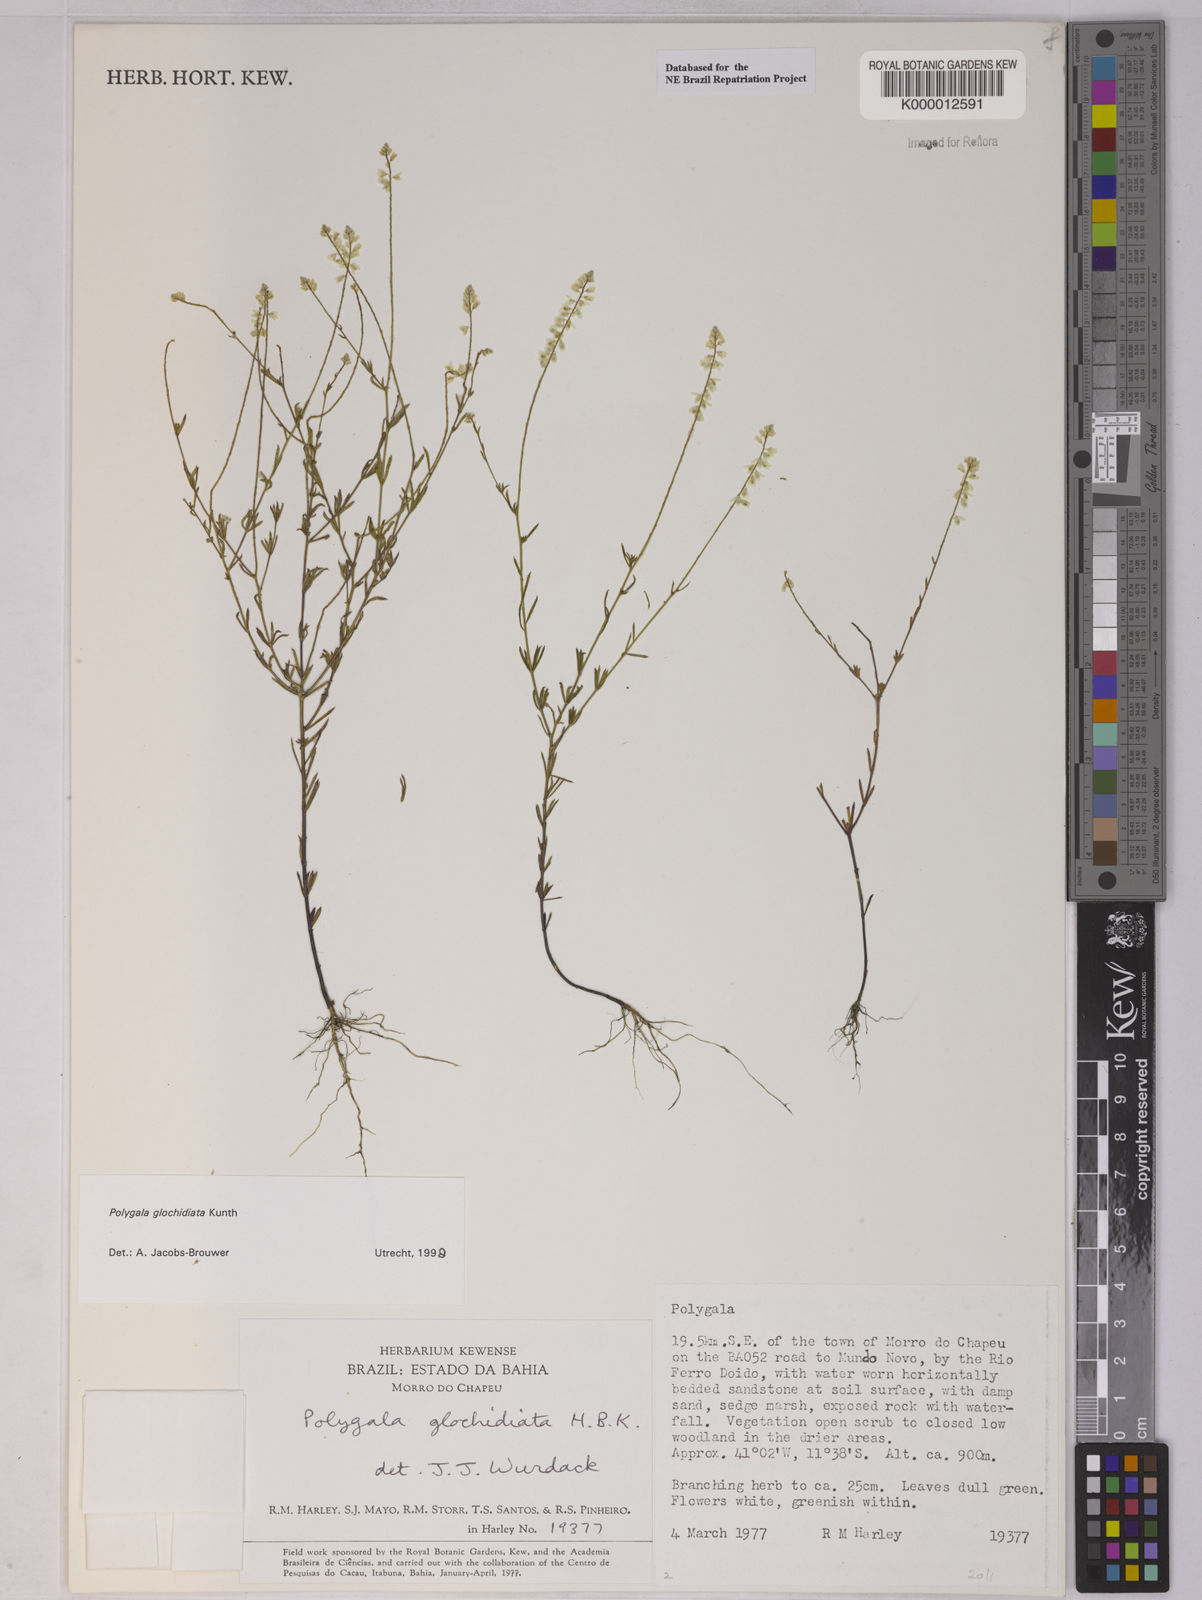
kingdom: Plantae
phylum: Tracheophyta
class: Magnoliopsida
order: Fabales
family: Polygalaceae
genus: Polygala
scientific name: Polygala glochidiata
